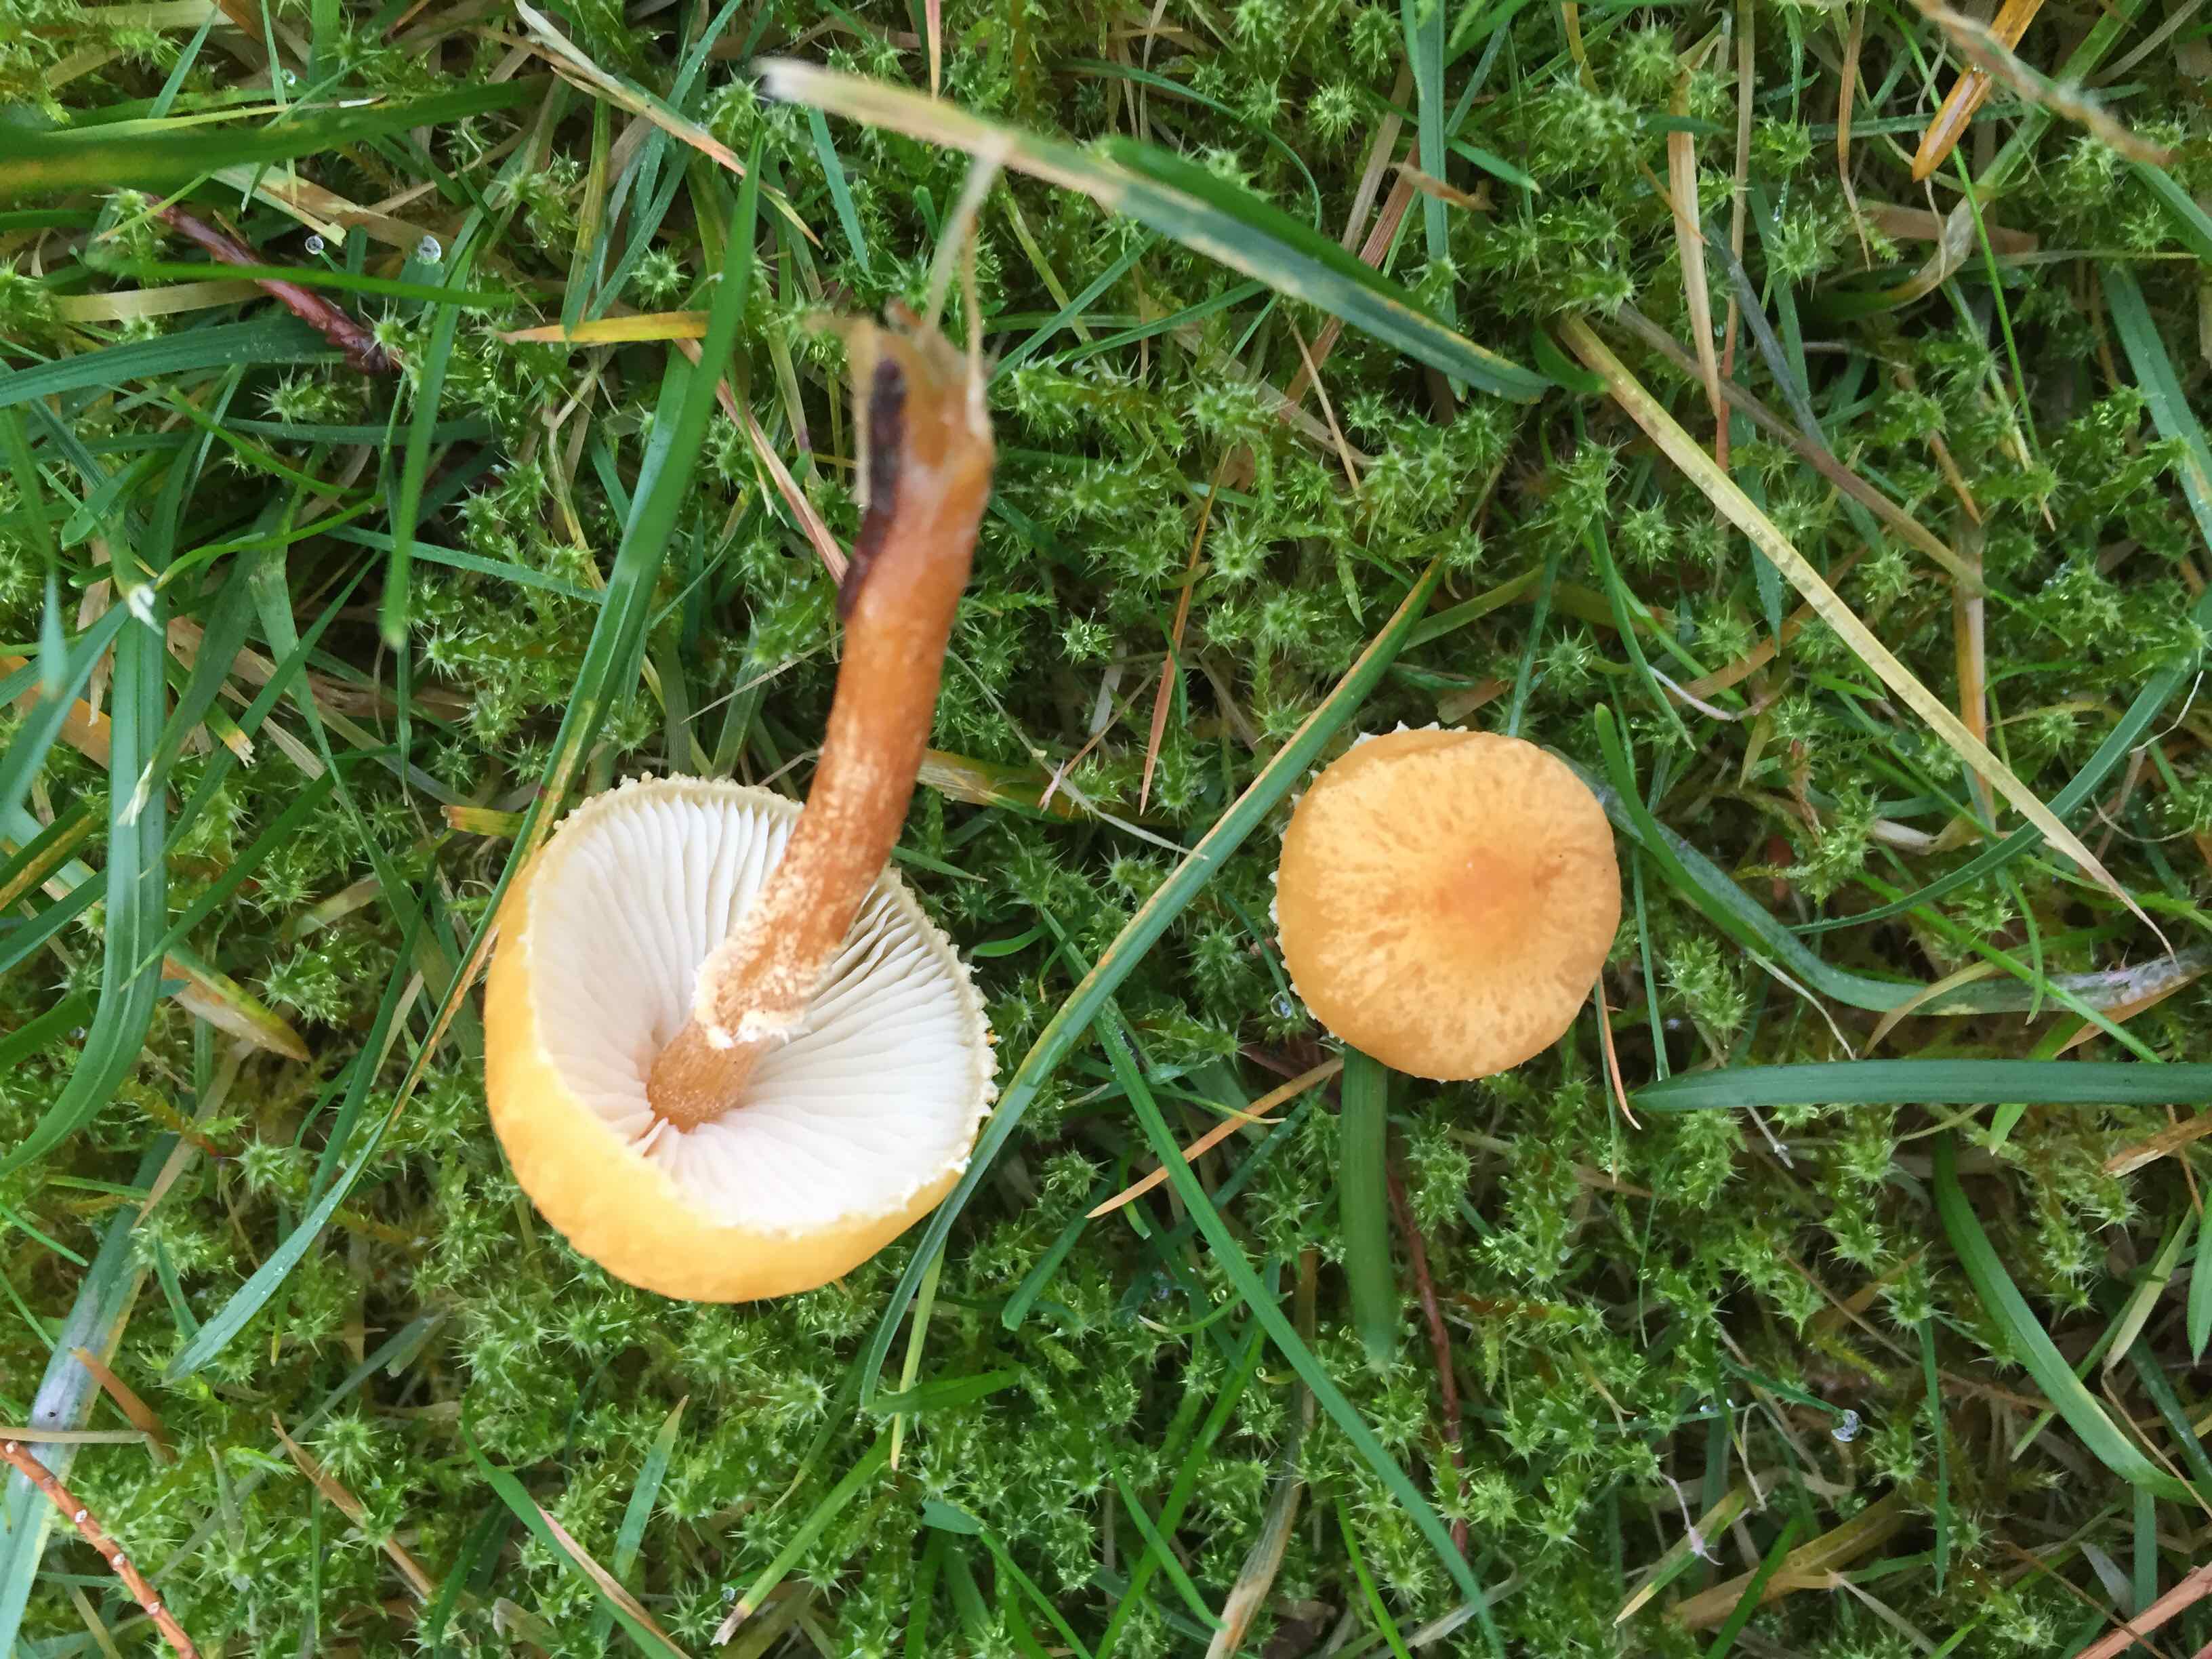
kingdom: Fungi
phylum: Basidiomycota
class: Agaricomycetes
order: Agaricales
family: Tricholomataceae
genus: Cystoderma
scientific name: Cystoderma amianthinum
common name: okkergul grynhat
